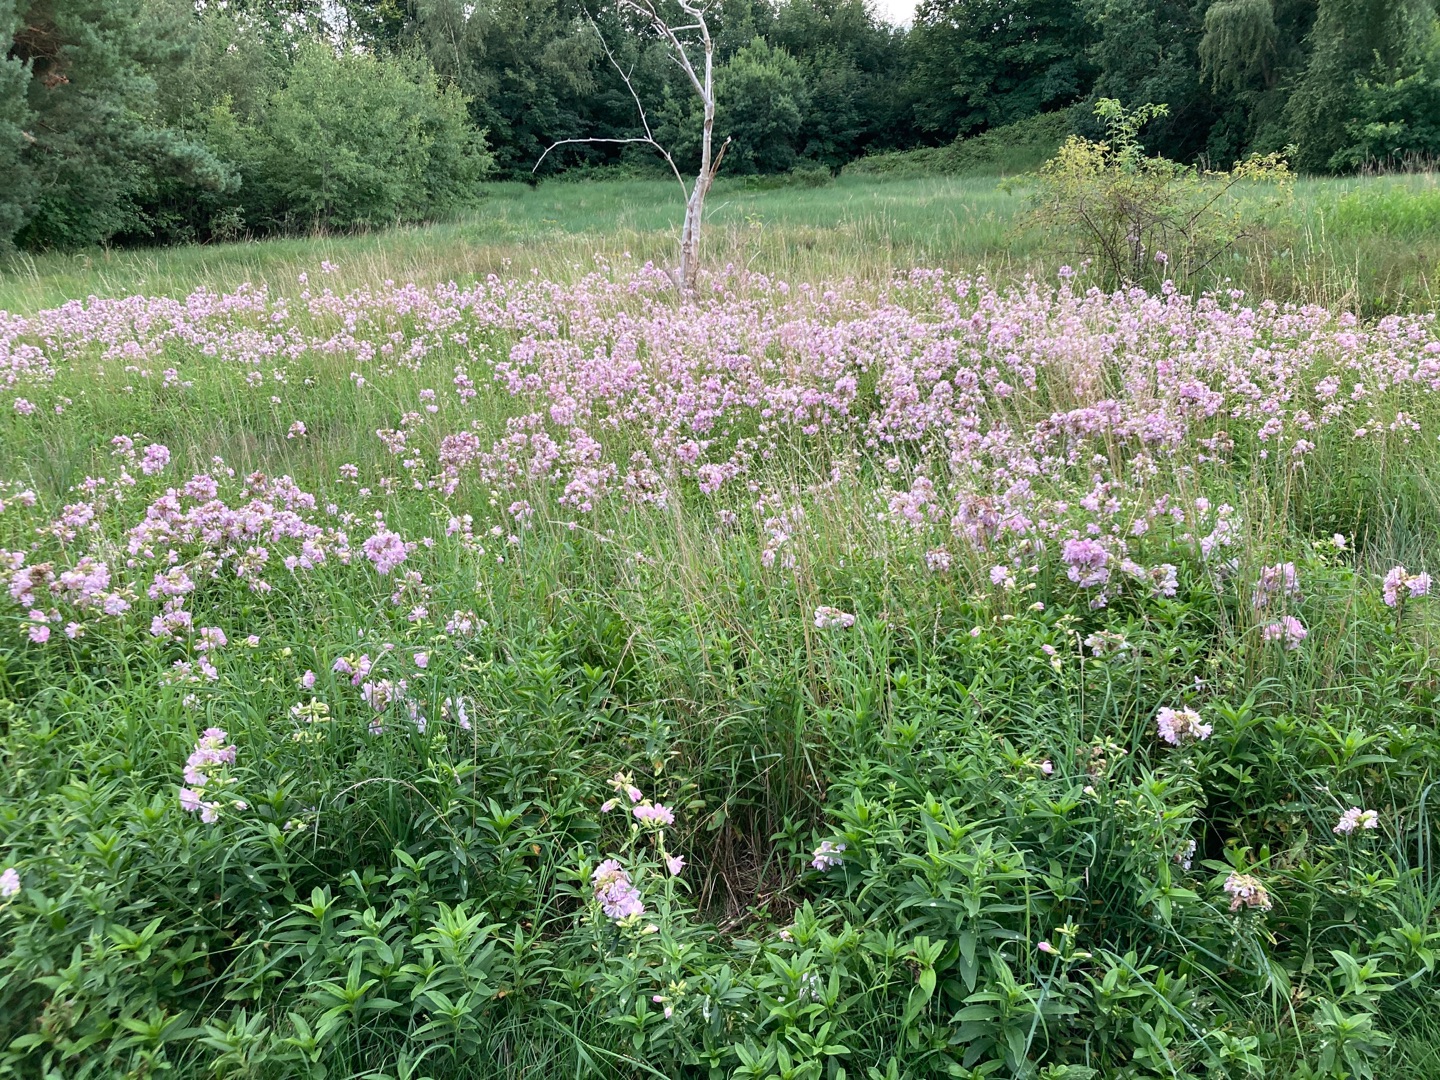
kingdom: Plantae
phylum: Tracheophyta
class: Magnoliopsida
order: Caryophyllales
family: Caryophyllaceae
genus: Saponaria
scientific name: Saponaria officinalis
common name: Sæbeurt
